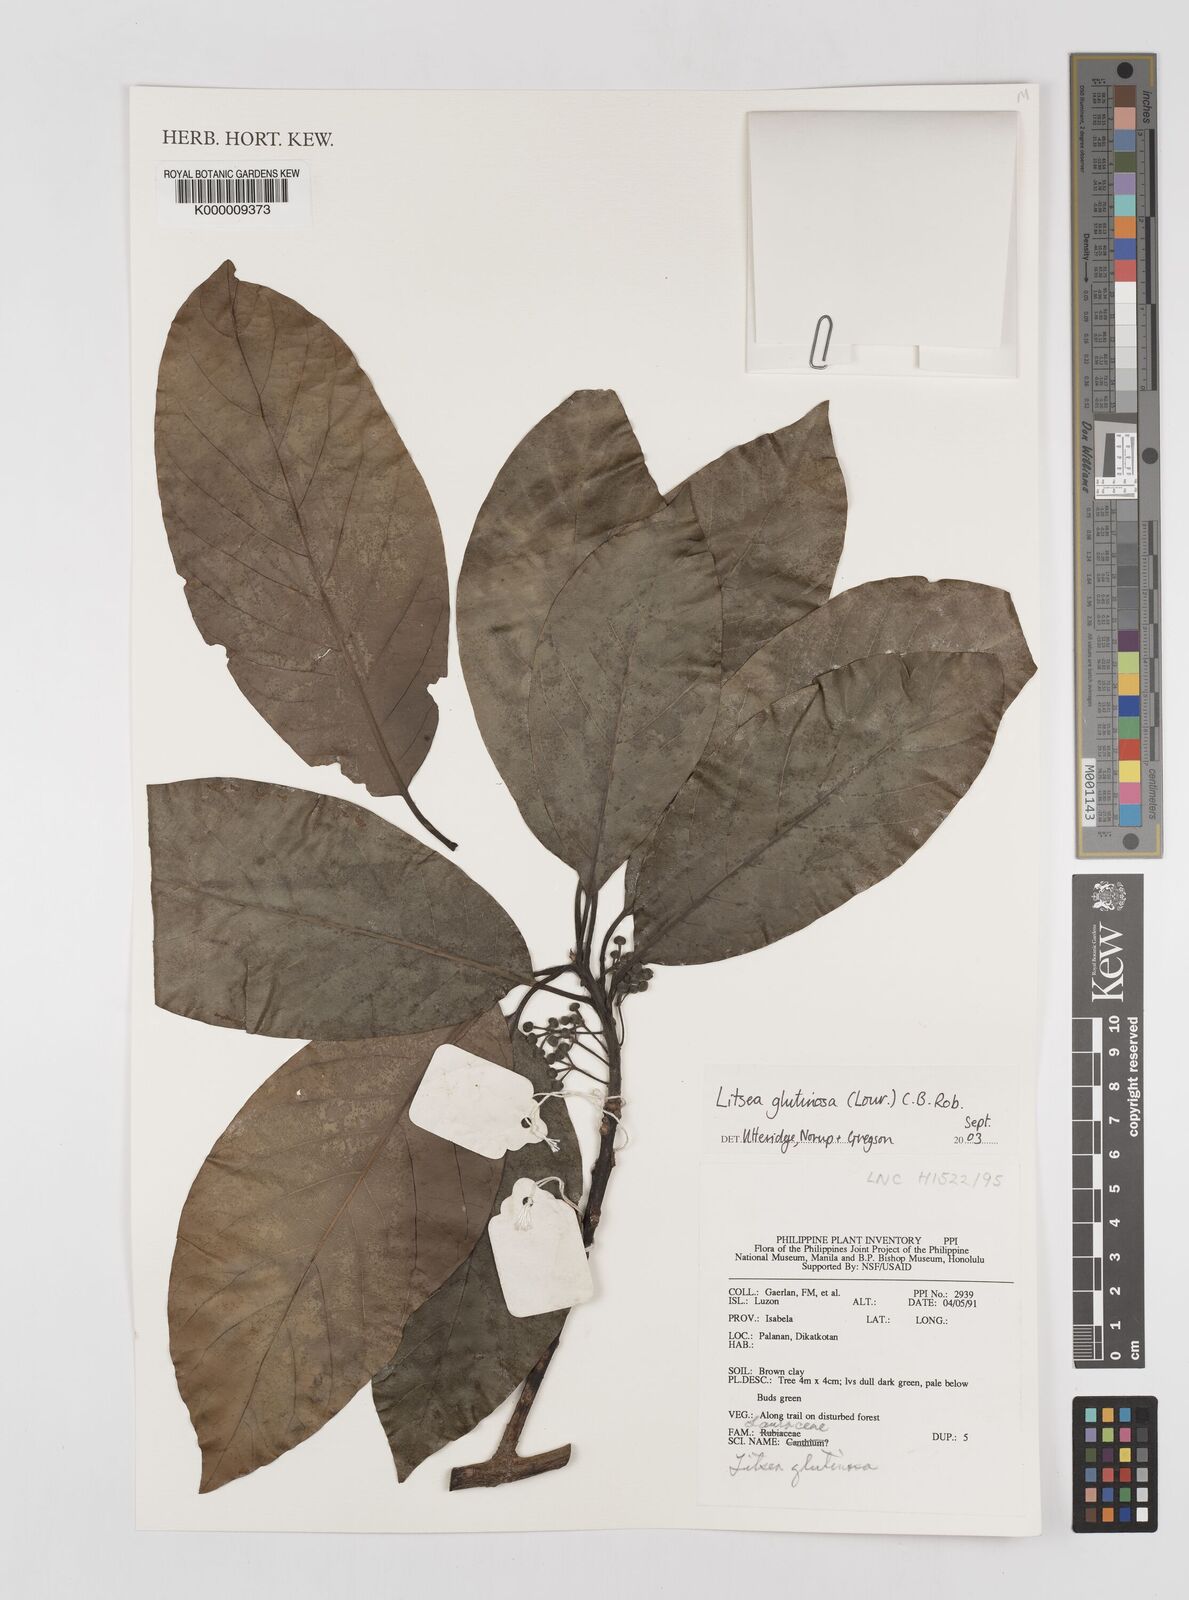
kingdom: Plantae
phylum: Tracheophyta
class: Magnoliopsida
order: Laurales
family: Lauraceae
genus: Litsea
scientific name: Litsea glutinosa
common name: Indian-laurel
